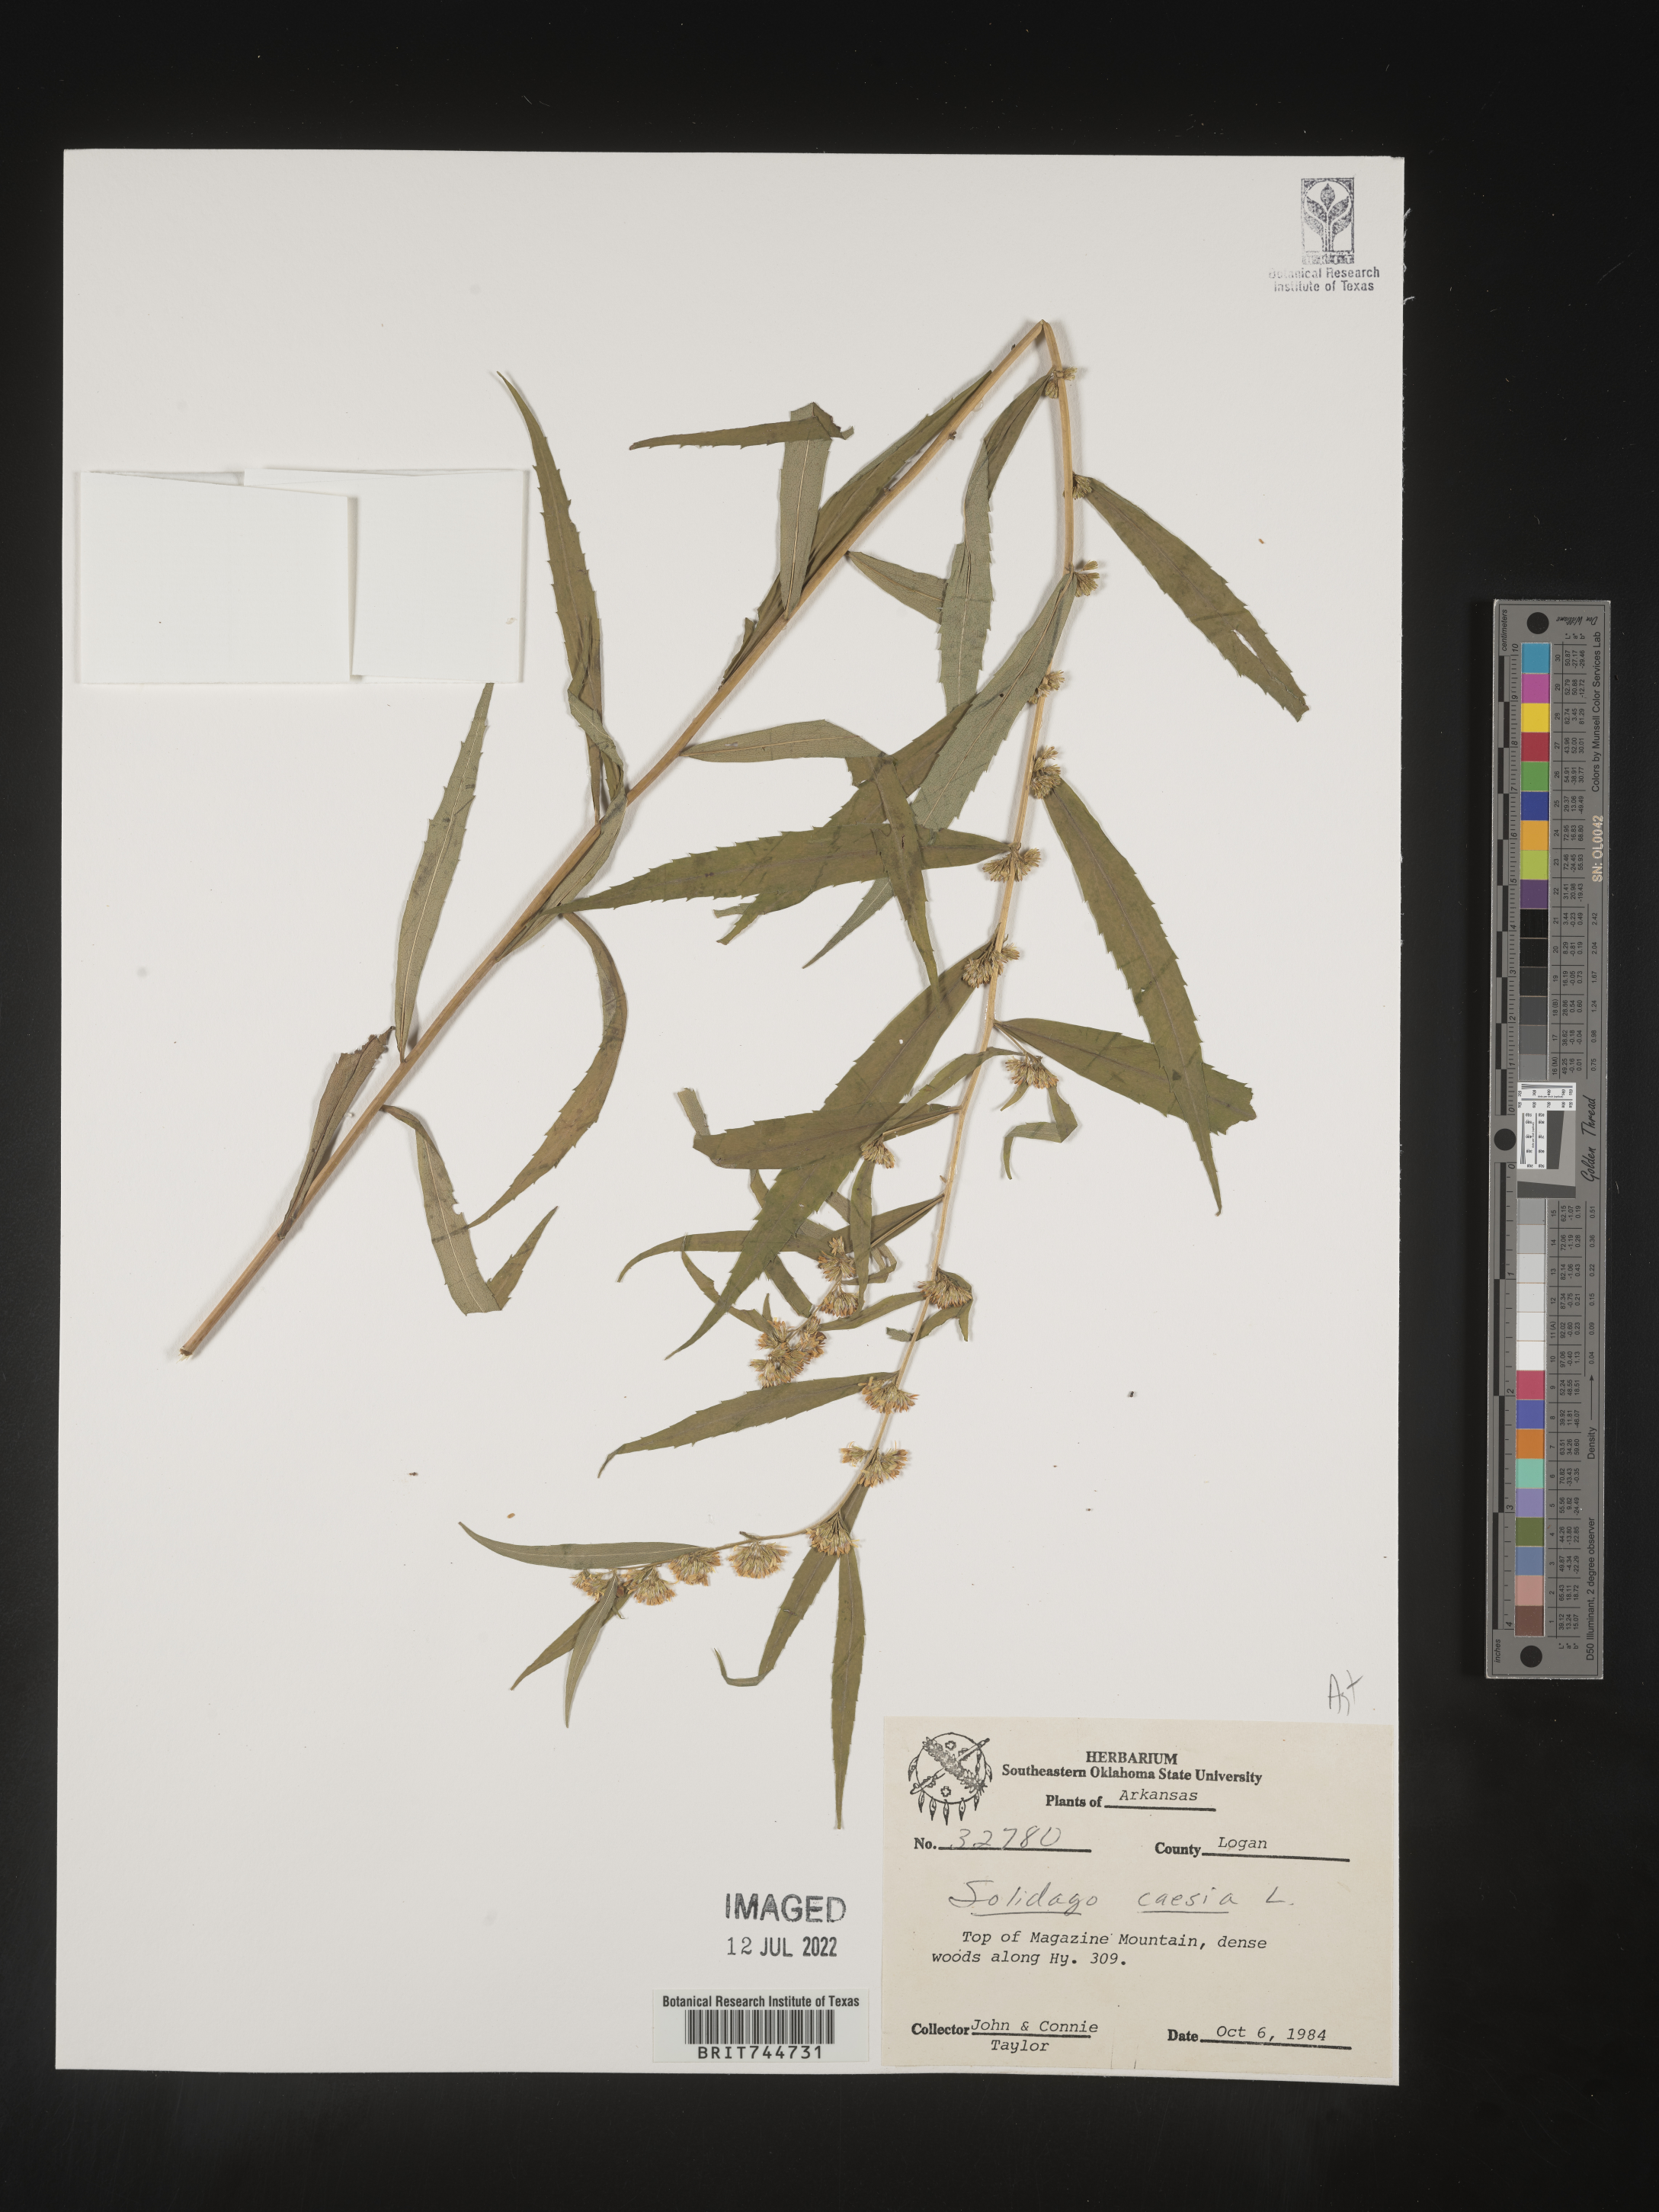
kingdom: Plantae
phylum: Tracheophyta
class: Magnoliopsida
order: Asterales
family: Asteraceae
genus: Solidago
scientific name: Solidago caesia
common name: Woodland goldenrod
